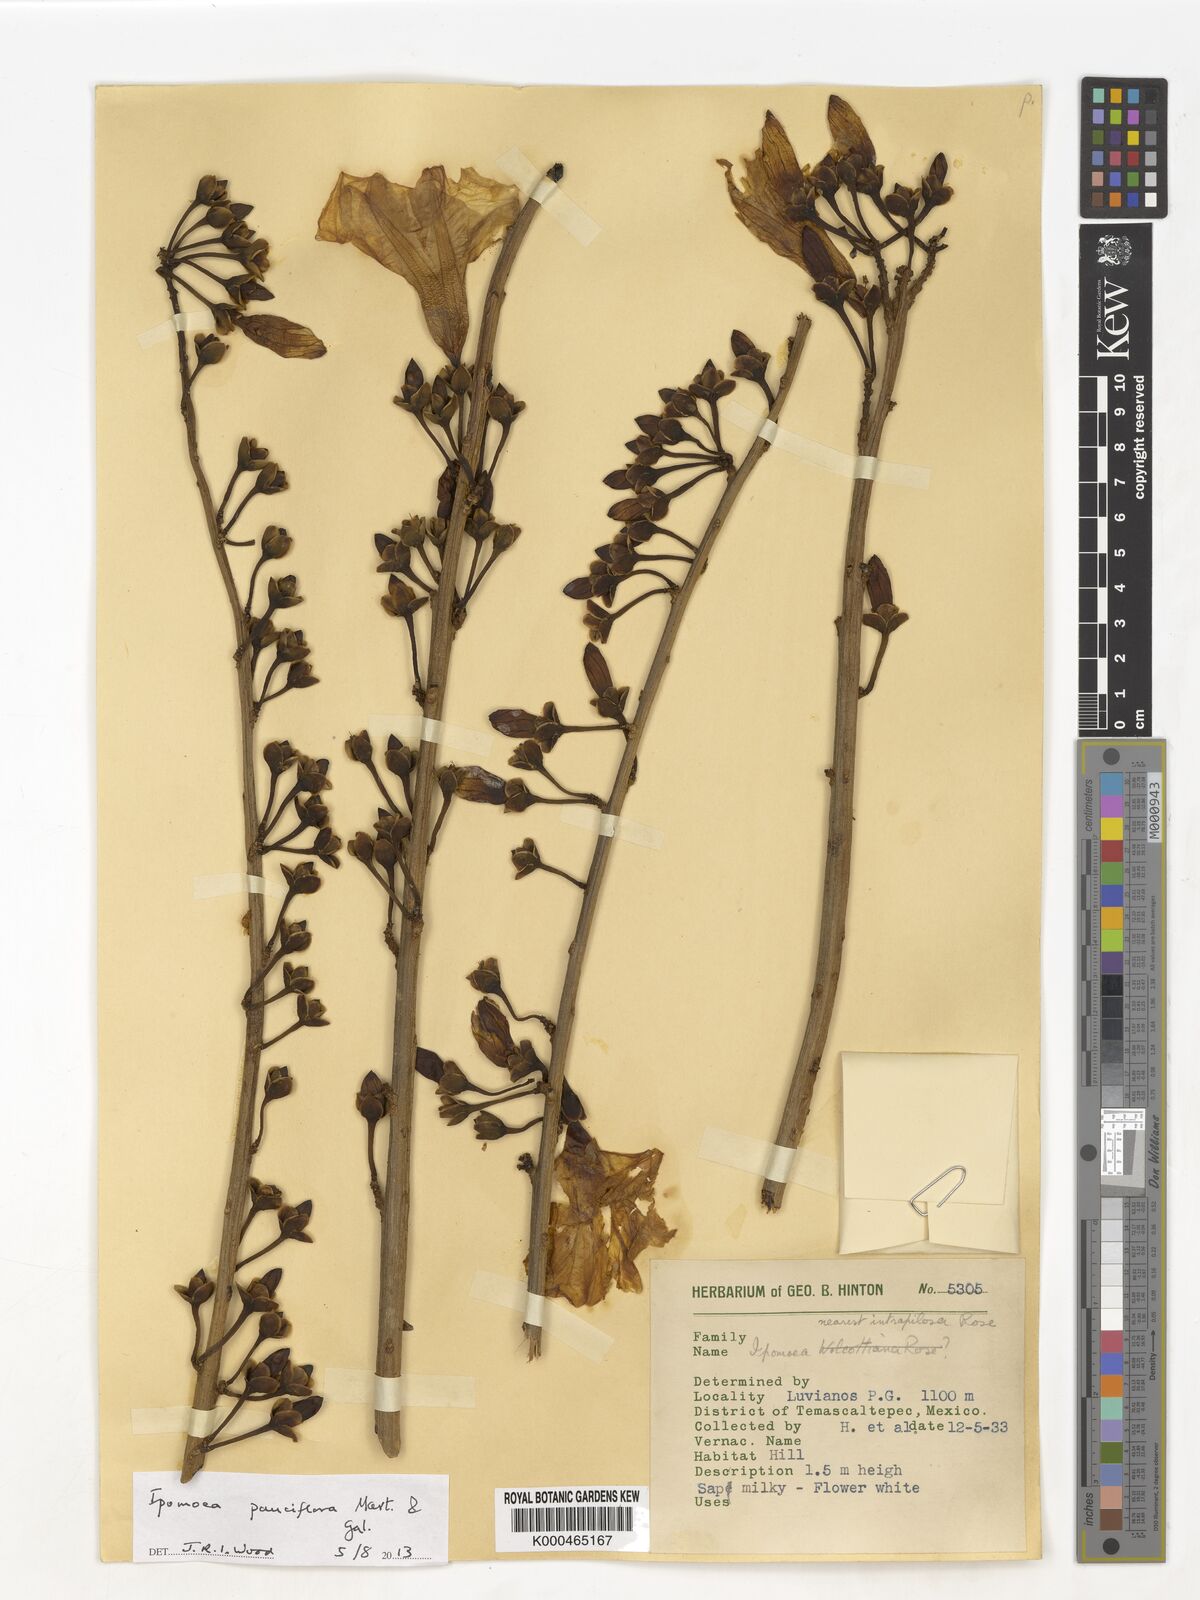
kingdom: Plantae
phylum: Tracheophyta
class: Magnoliopsida
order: Solanales
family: Convolvulaceae
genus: Ipomoea
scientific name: Ipomoea intrapilosa
